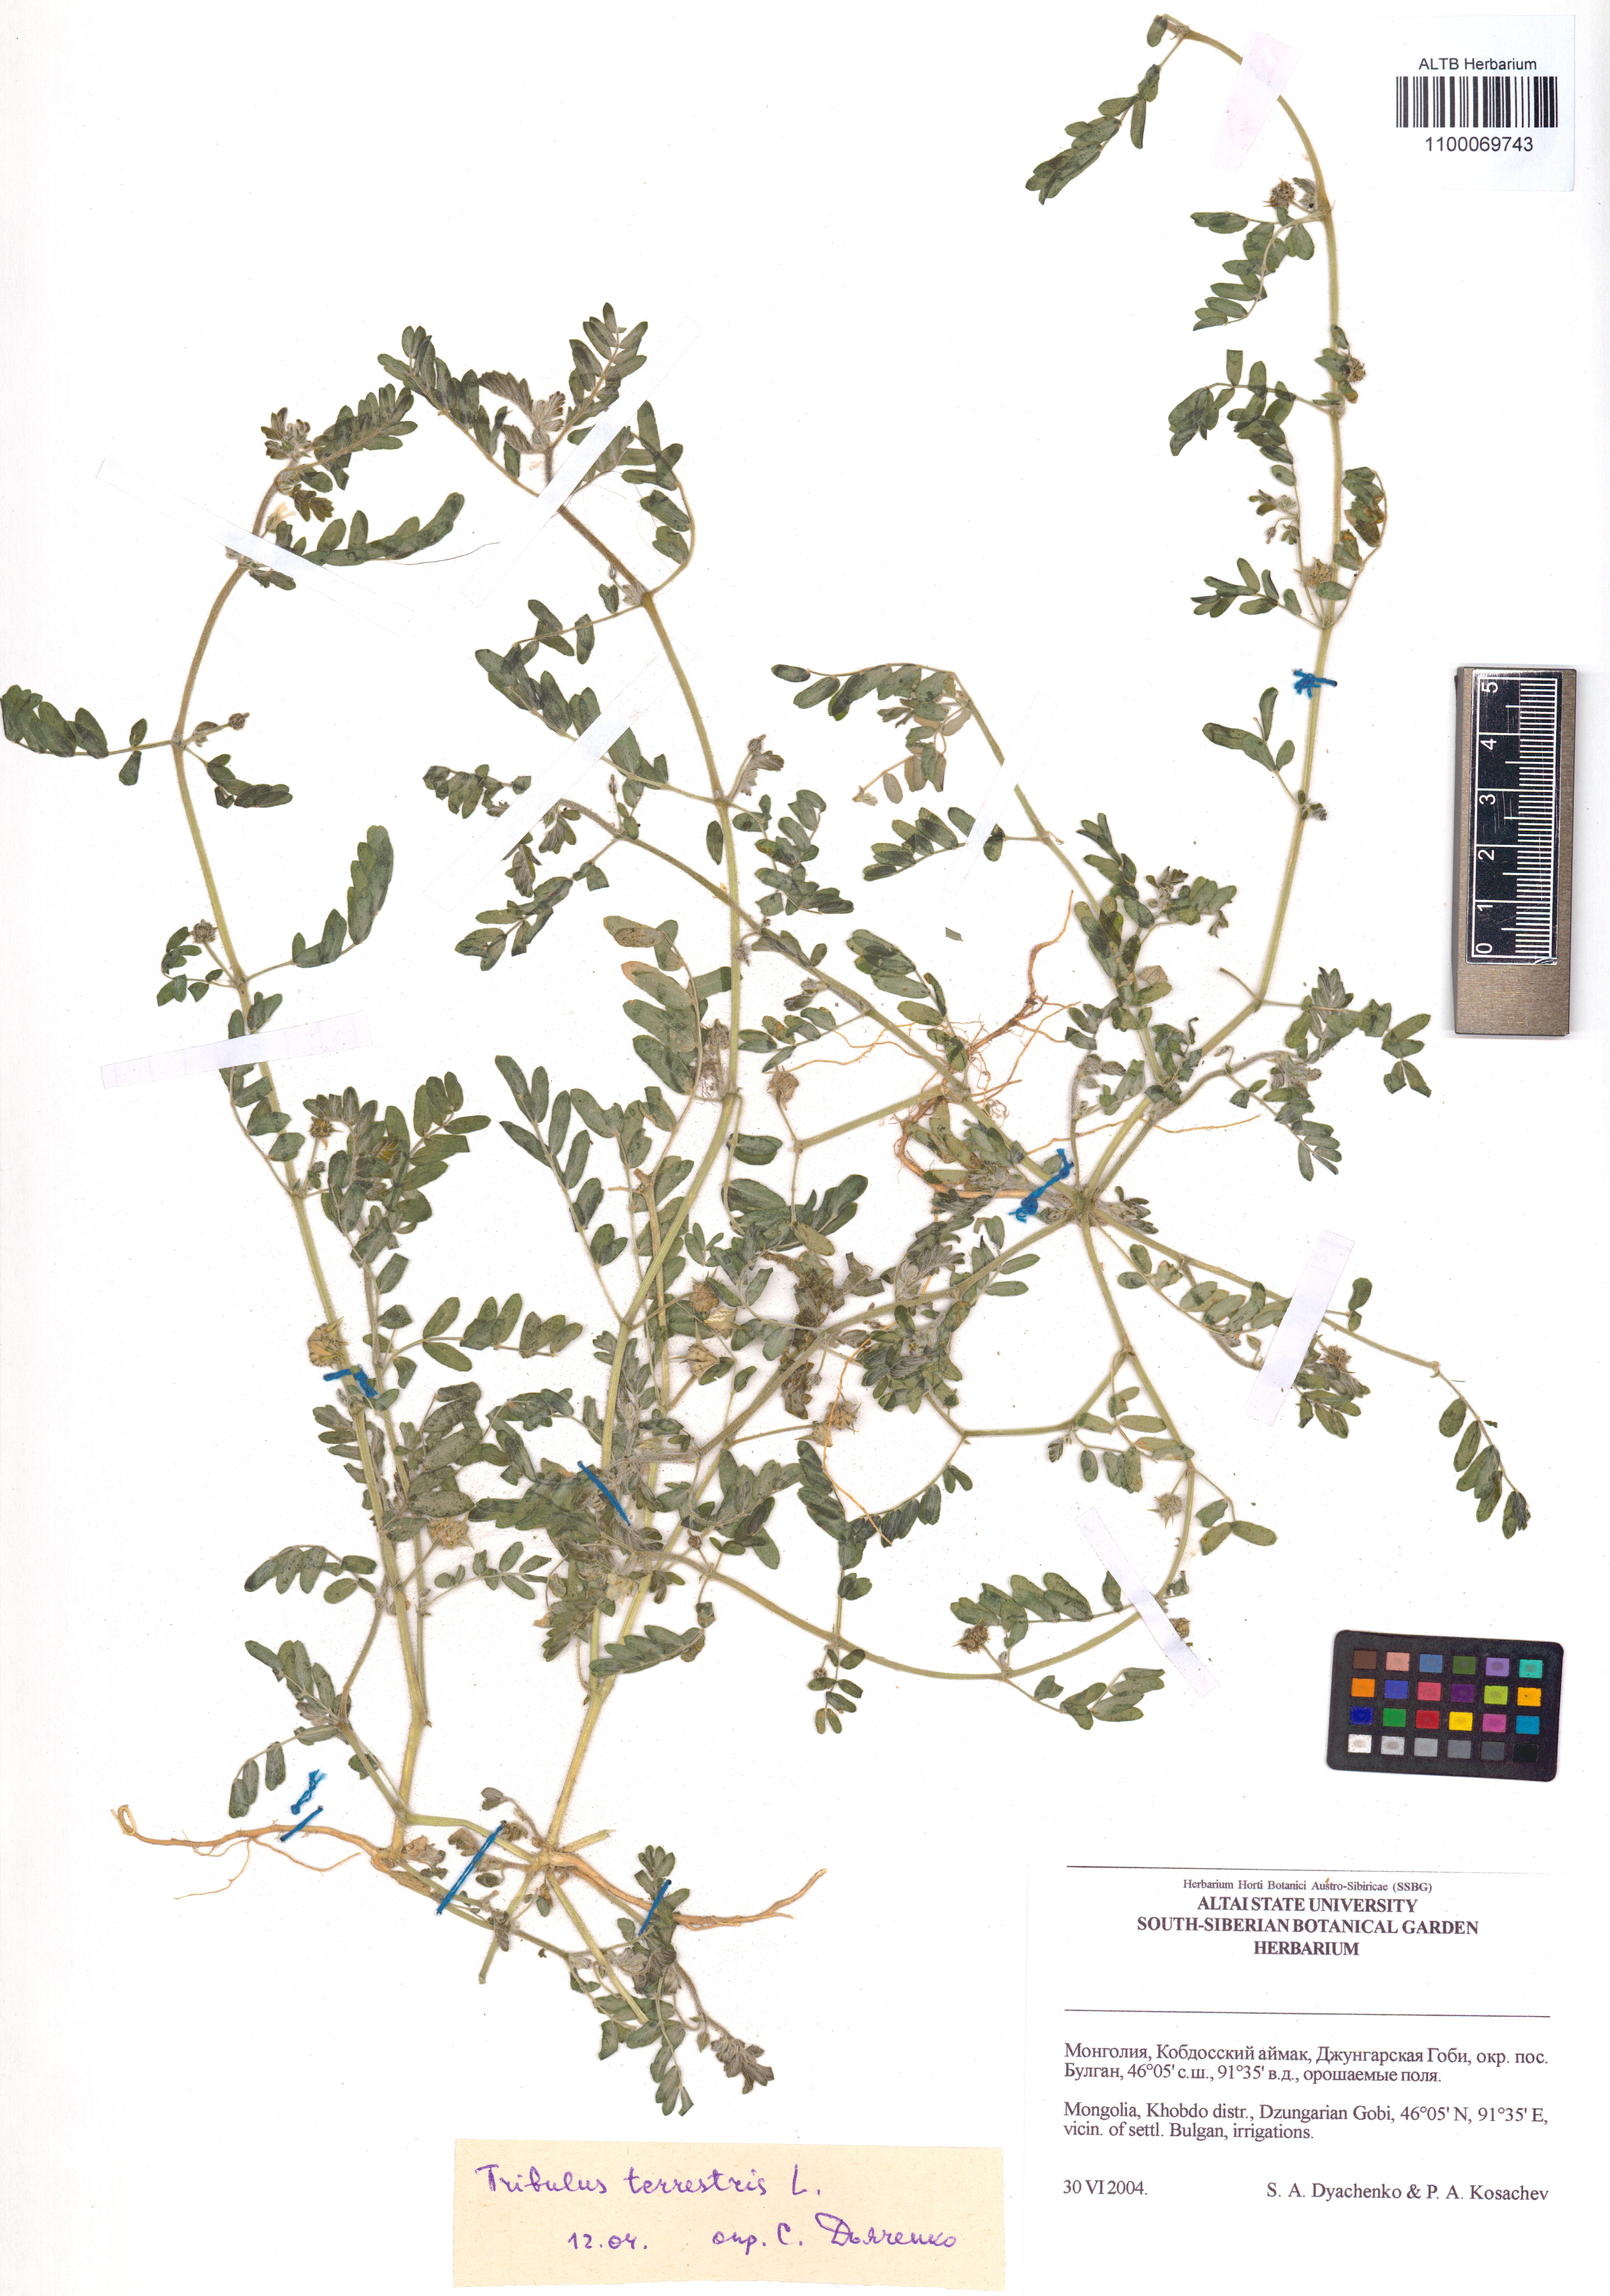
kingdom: Plantae
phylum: Tracheophyta
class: Magnoliopsida
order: Zygophyllales
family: Zygophyllaceae
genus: Tribulus
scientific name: Tribulus terrestris
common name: Puncturevine
